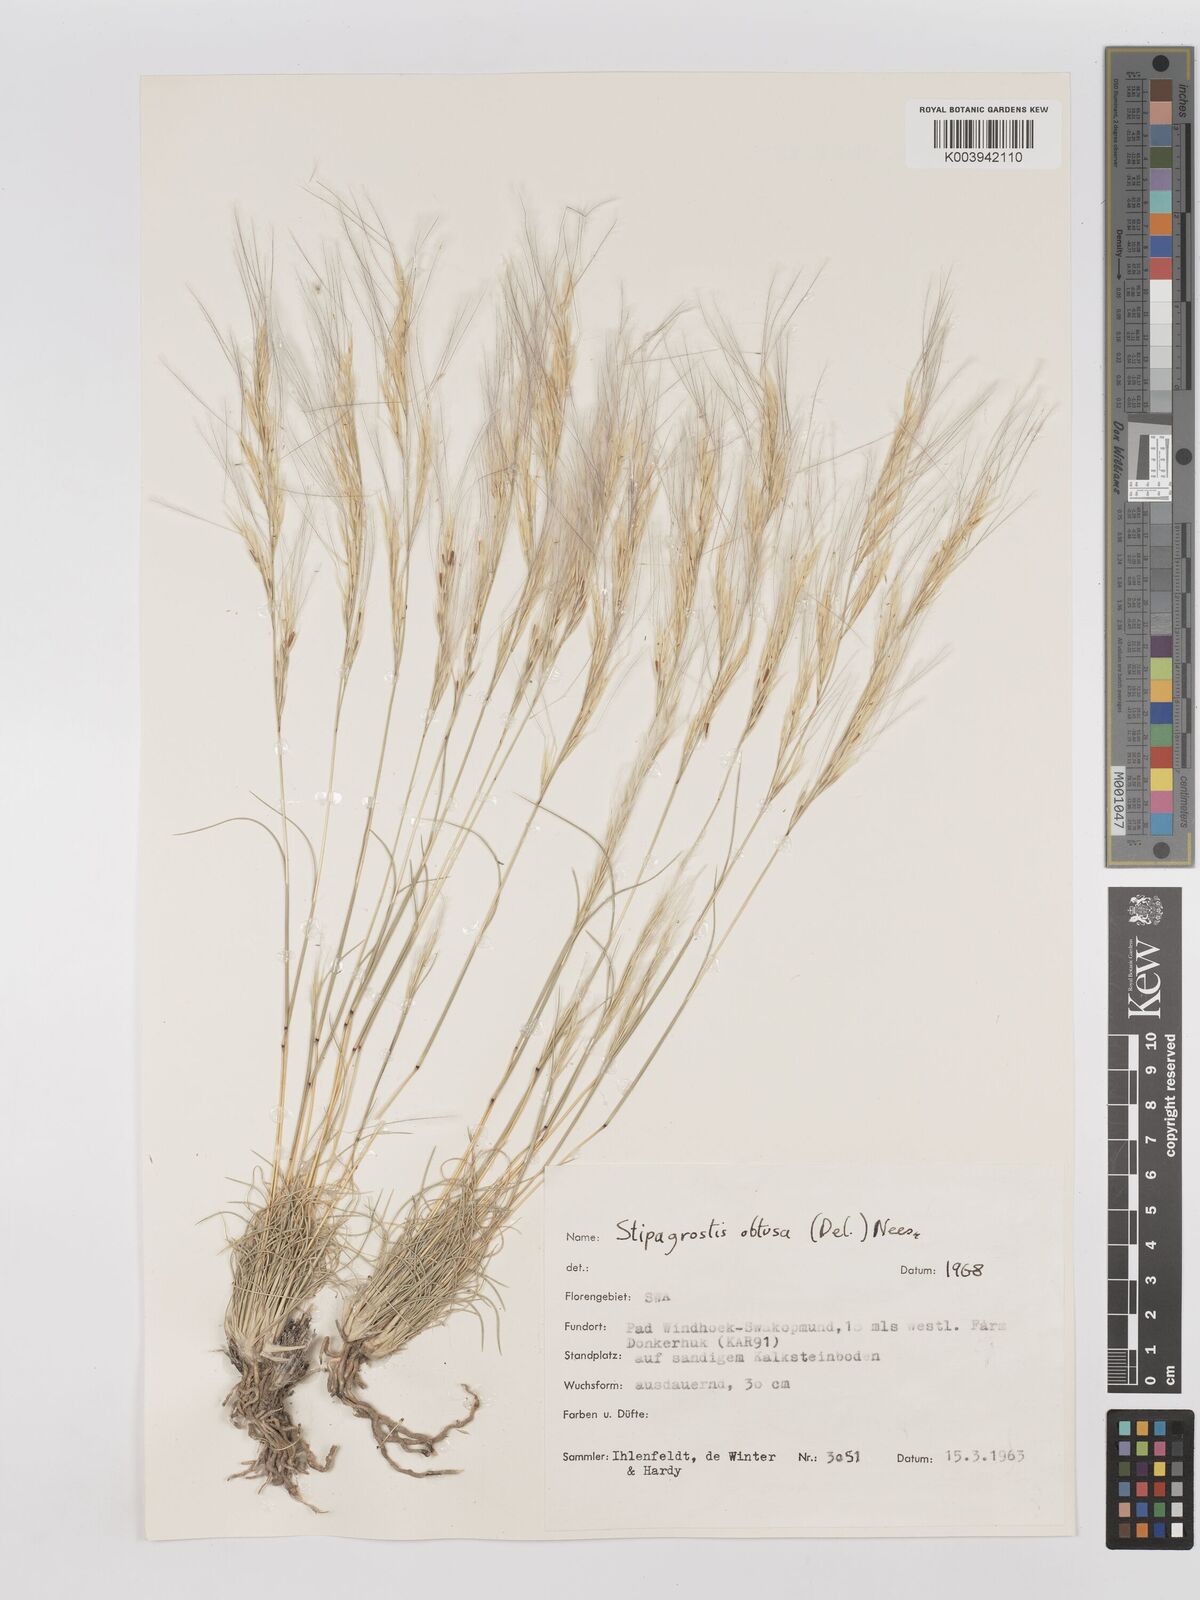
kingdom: Plantae
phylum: Tracheophyta
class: Liliopsida
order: Poales
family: Poaceae
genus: Stipagrostis
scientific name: Stipagrostis obtusa
